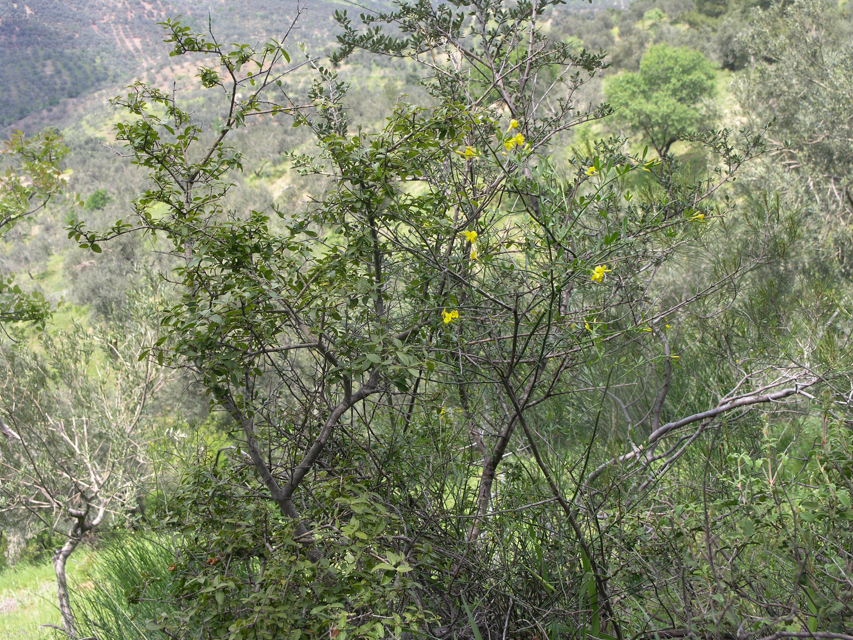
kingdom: Plantae
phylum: Tracheophyta
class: Magnoliopsida
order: Lamiales
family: Oleaceae
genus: Chrysojasminum
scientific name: Chrysojasminum fruticans
